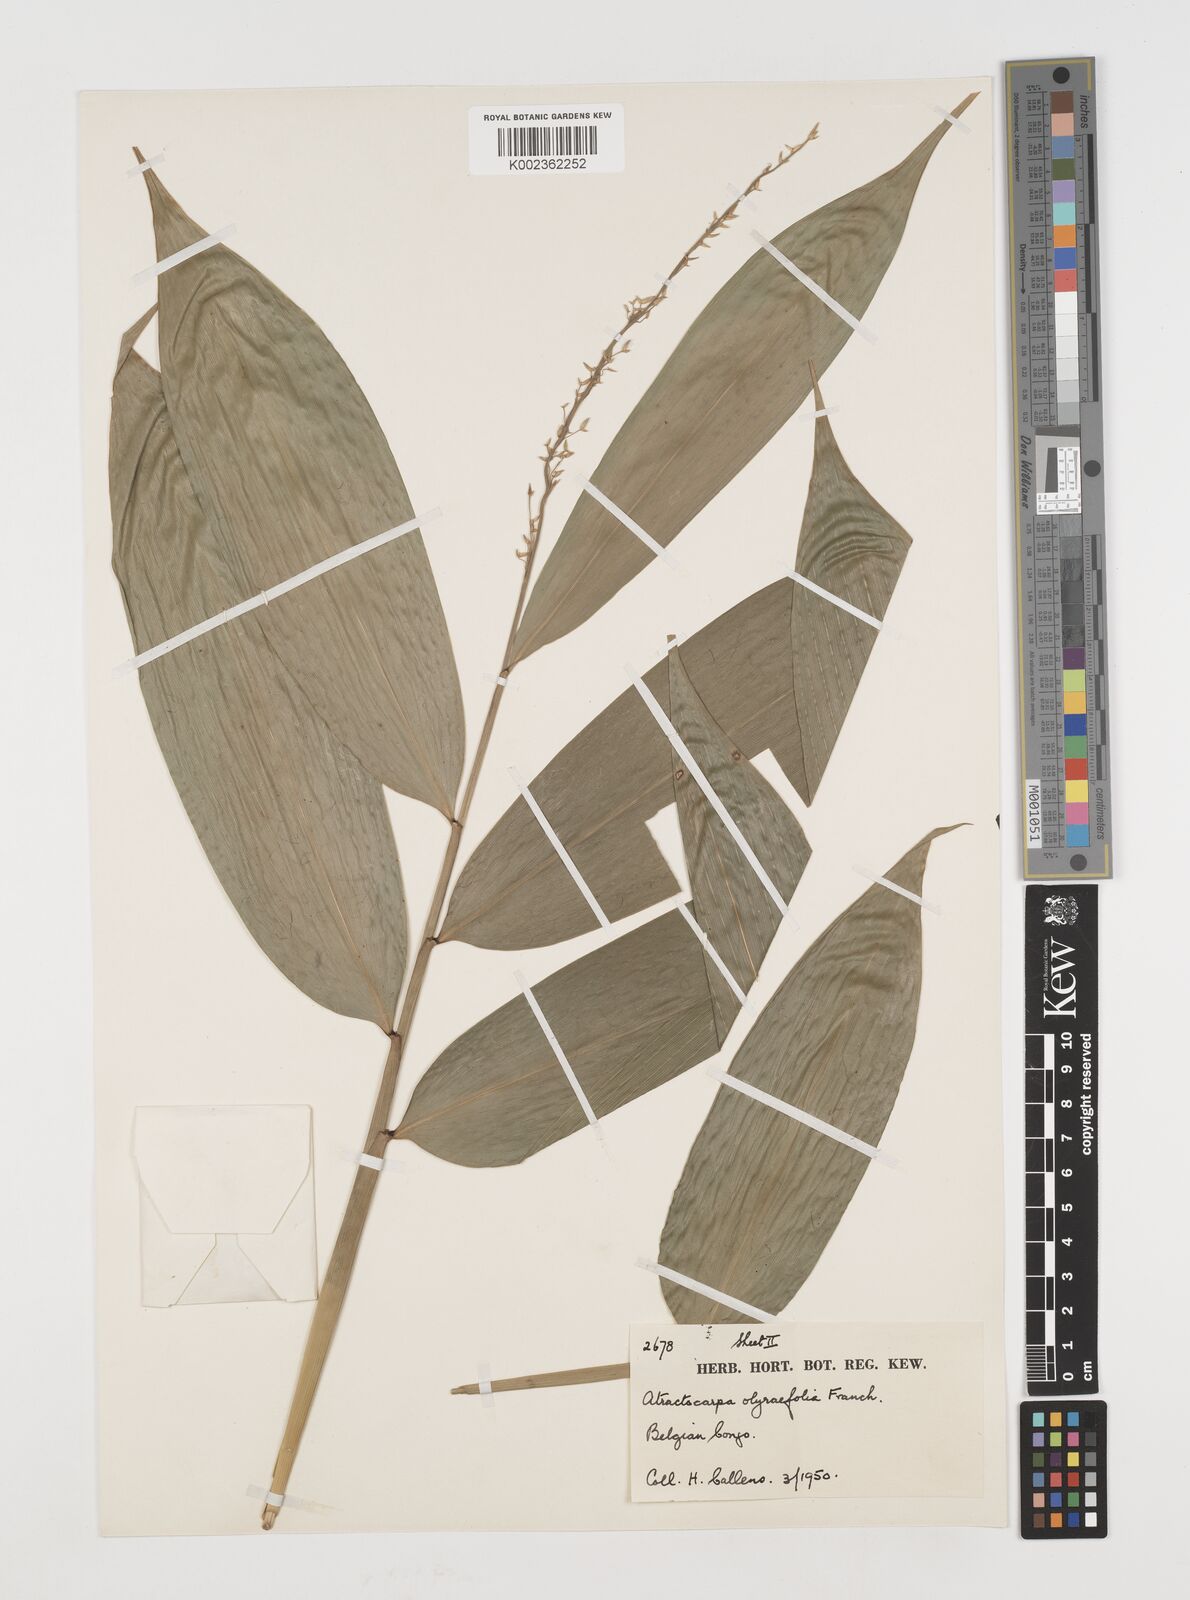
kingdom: Plantae
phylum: Tracheophyta
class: Liliopsida
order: Poales
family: Poaceae
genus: Puelia
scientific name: Puelia olyriformis
